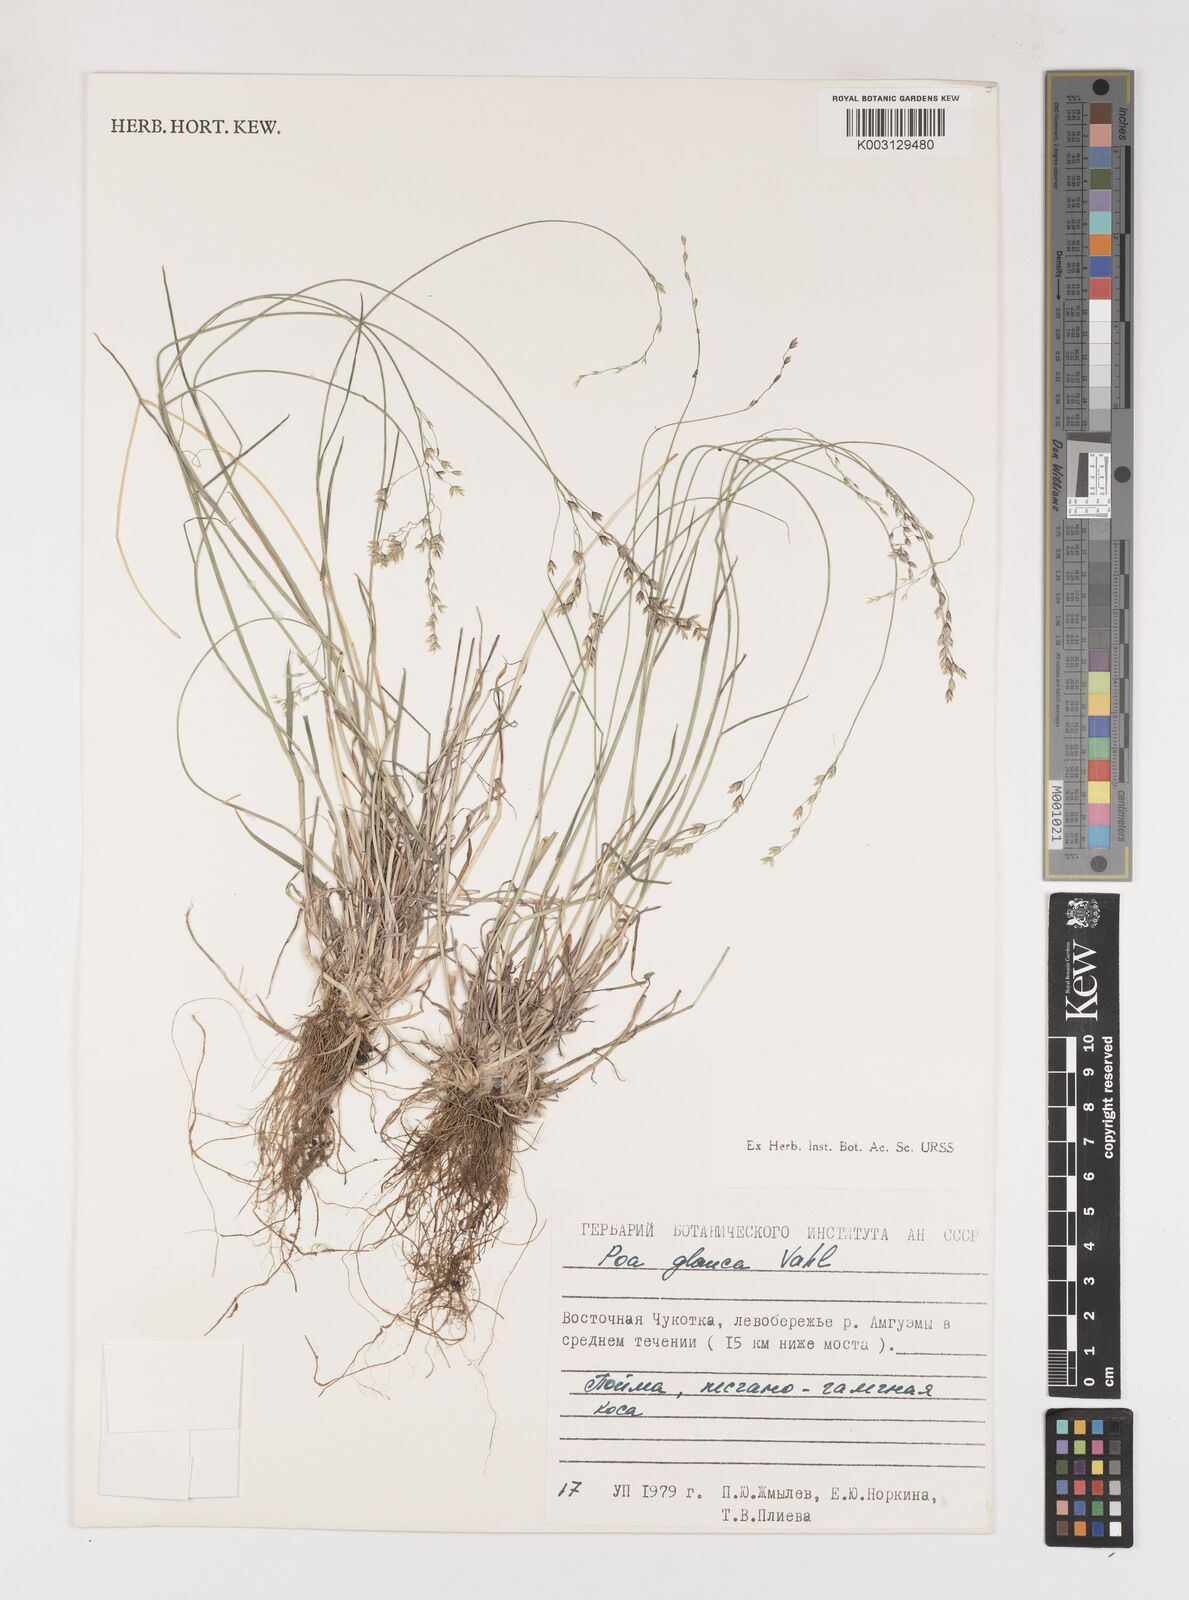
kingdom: Plantae
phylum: Tracheophyta
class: Liliopsida
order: Poales
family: Poaceae
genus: Poa
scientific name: Poa glauca
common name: Glaucous bluegrass
